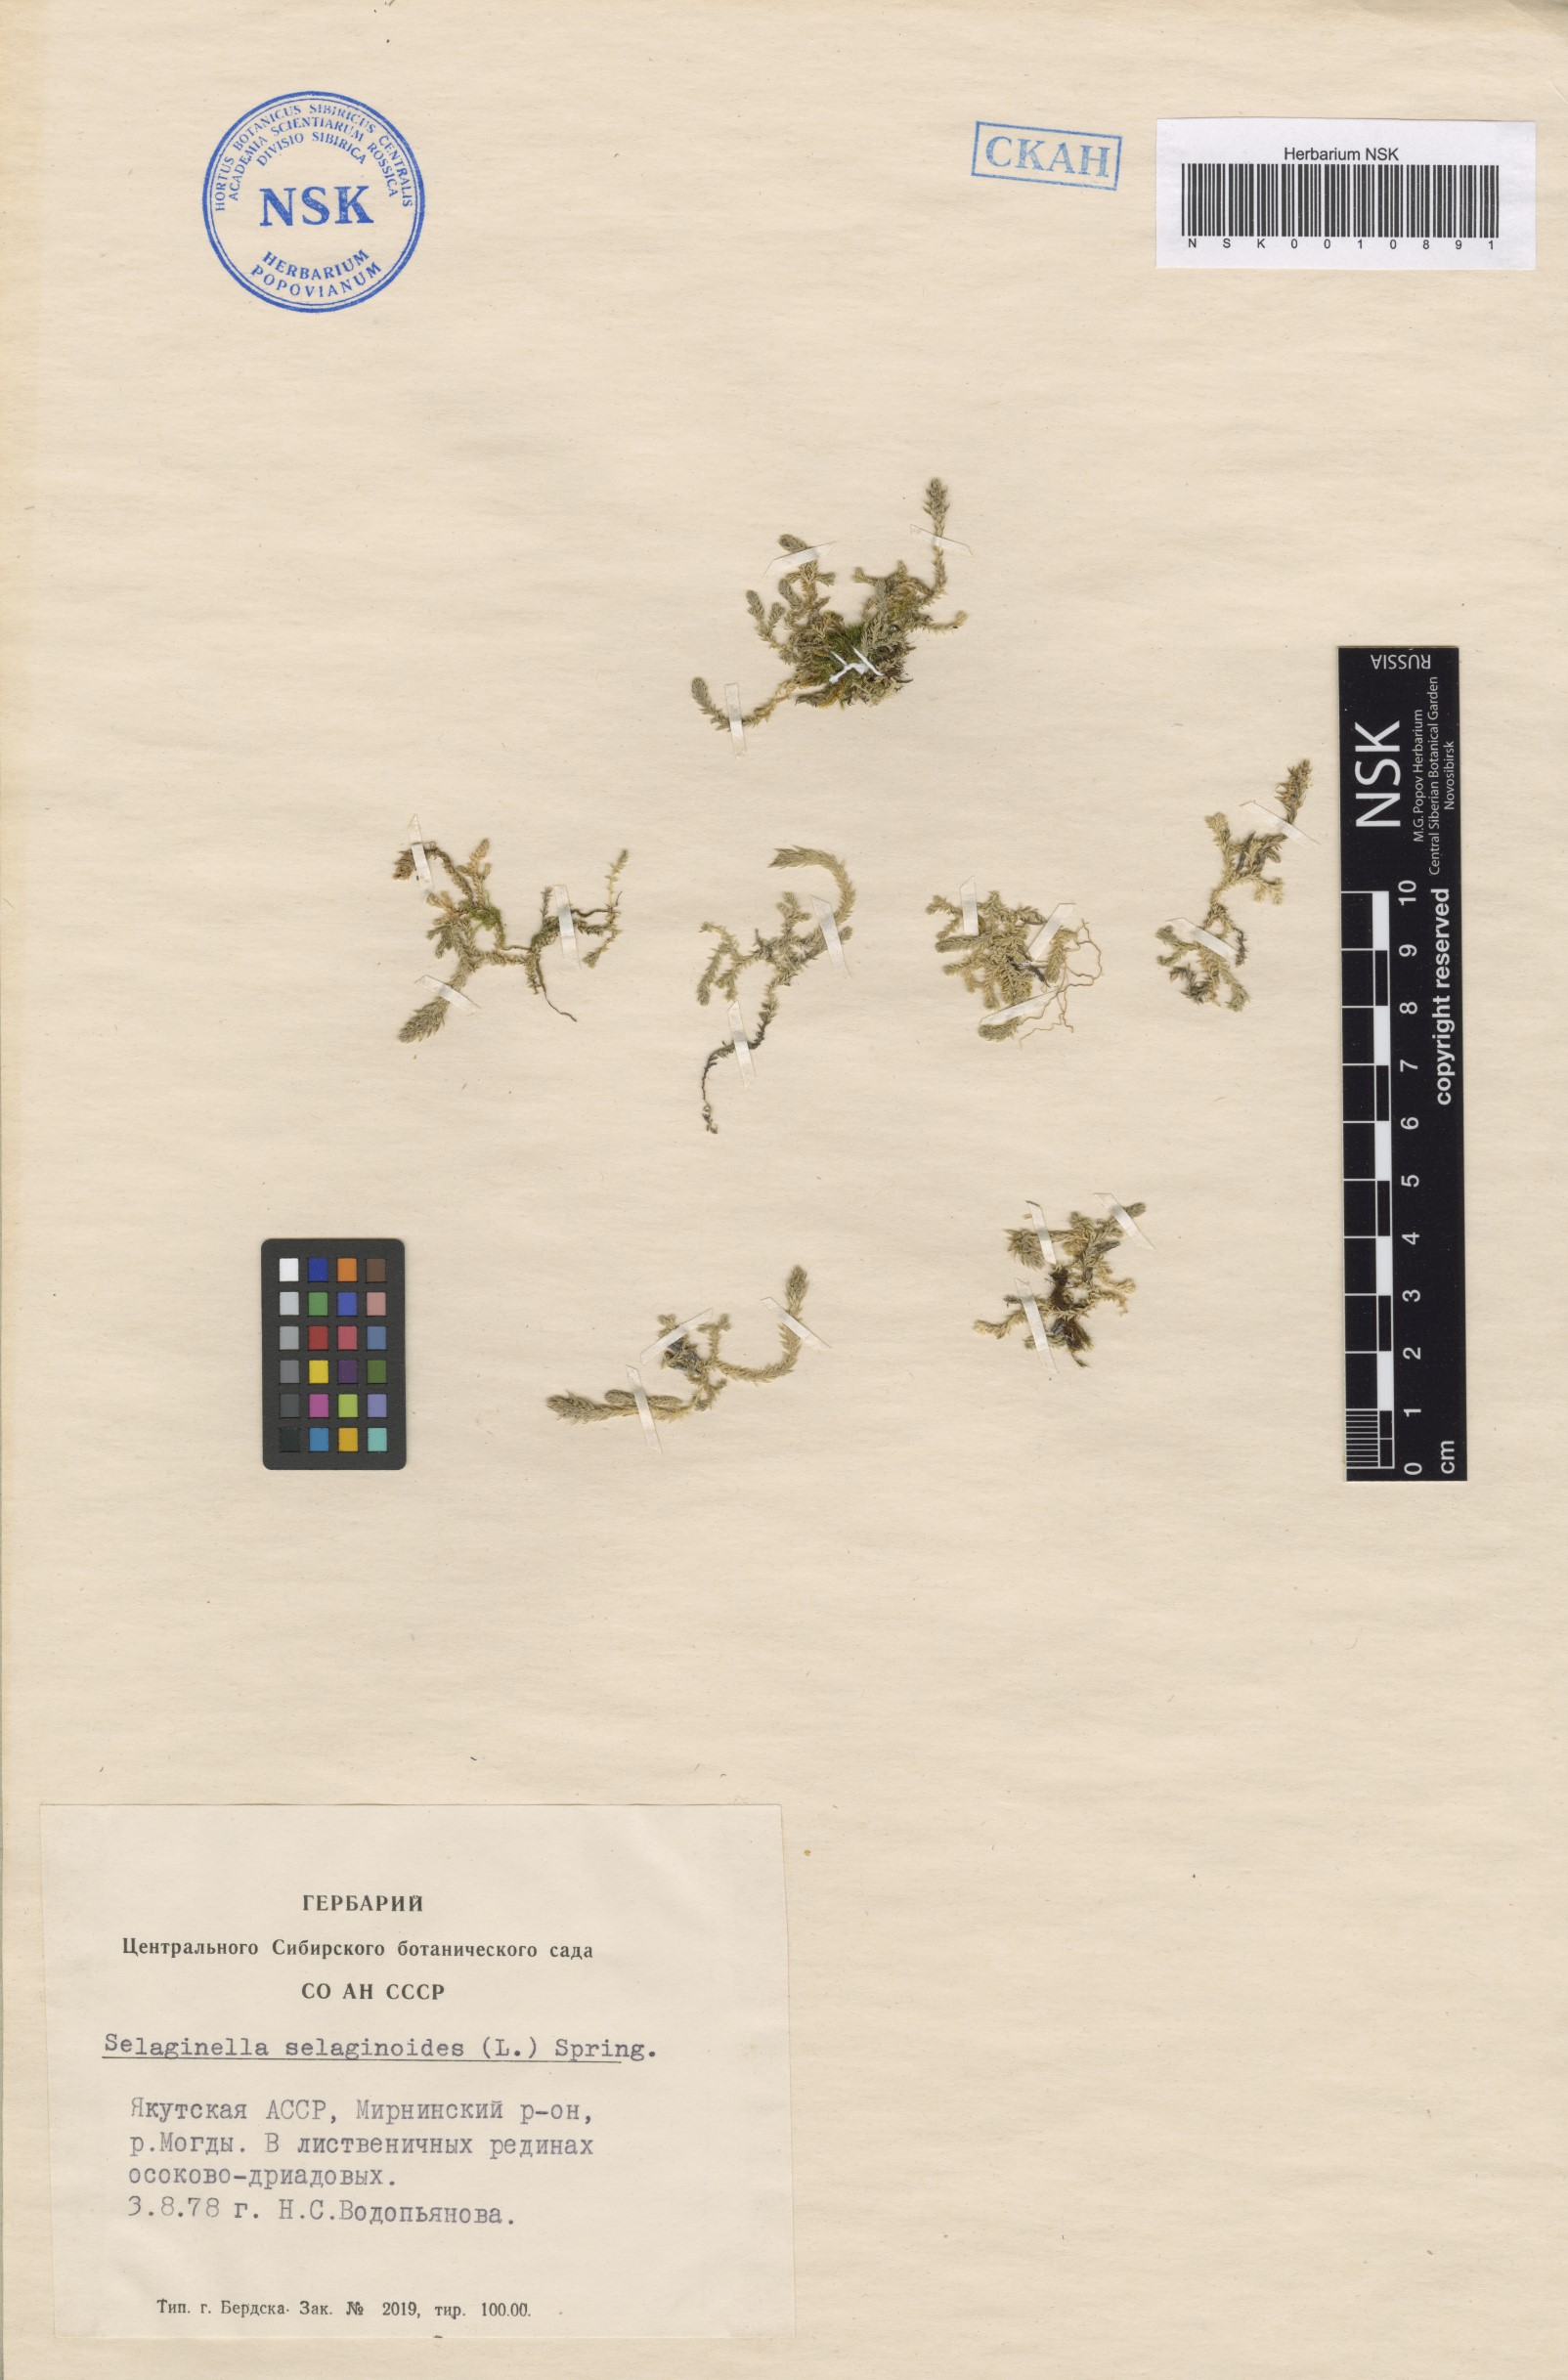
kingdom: Plantae
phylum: Tracheophyta
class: Lycopodiopsida
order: Selaginellales
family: Selaginellaceae
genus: Selaginella
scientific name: Selaginella selaginoides
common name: Prickly mountain-moss
